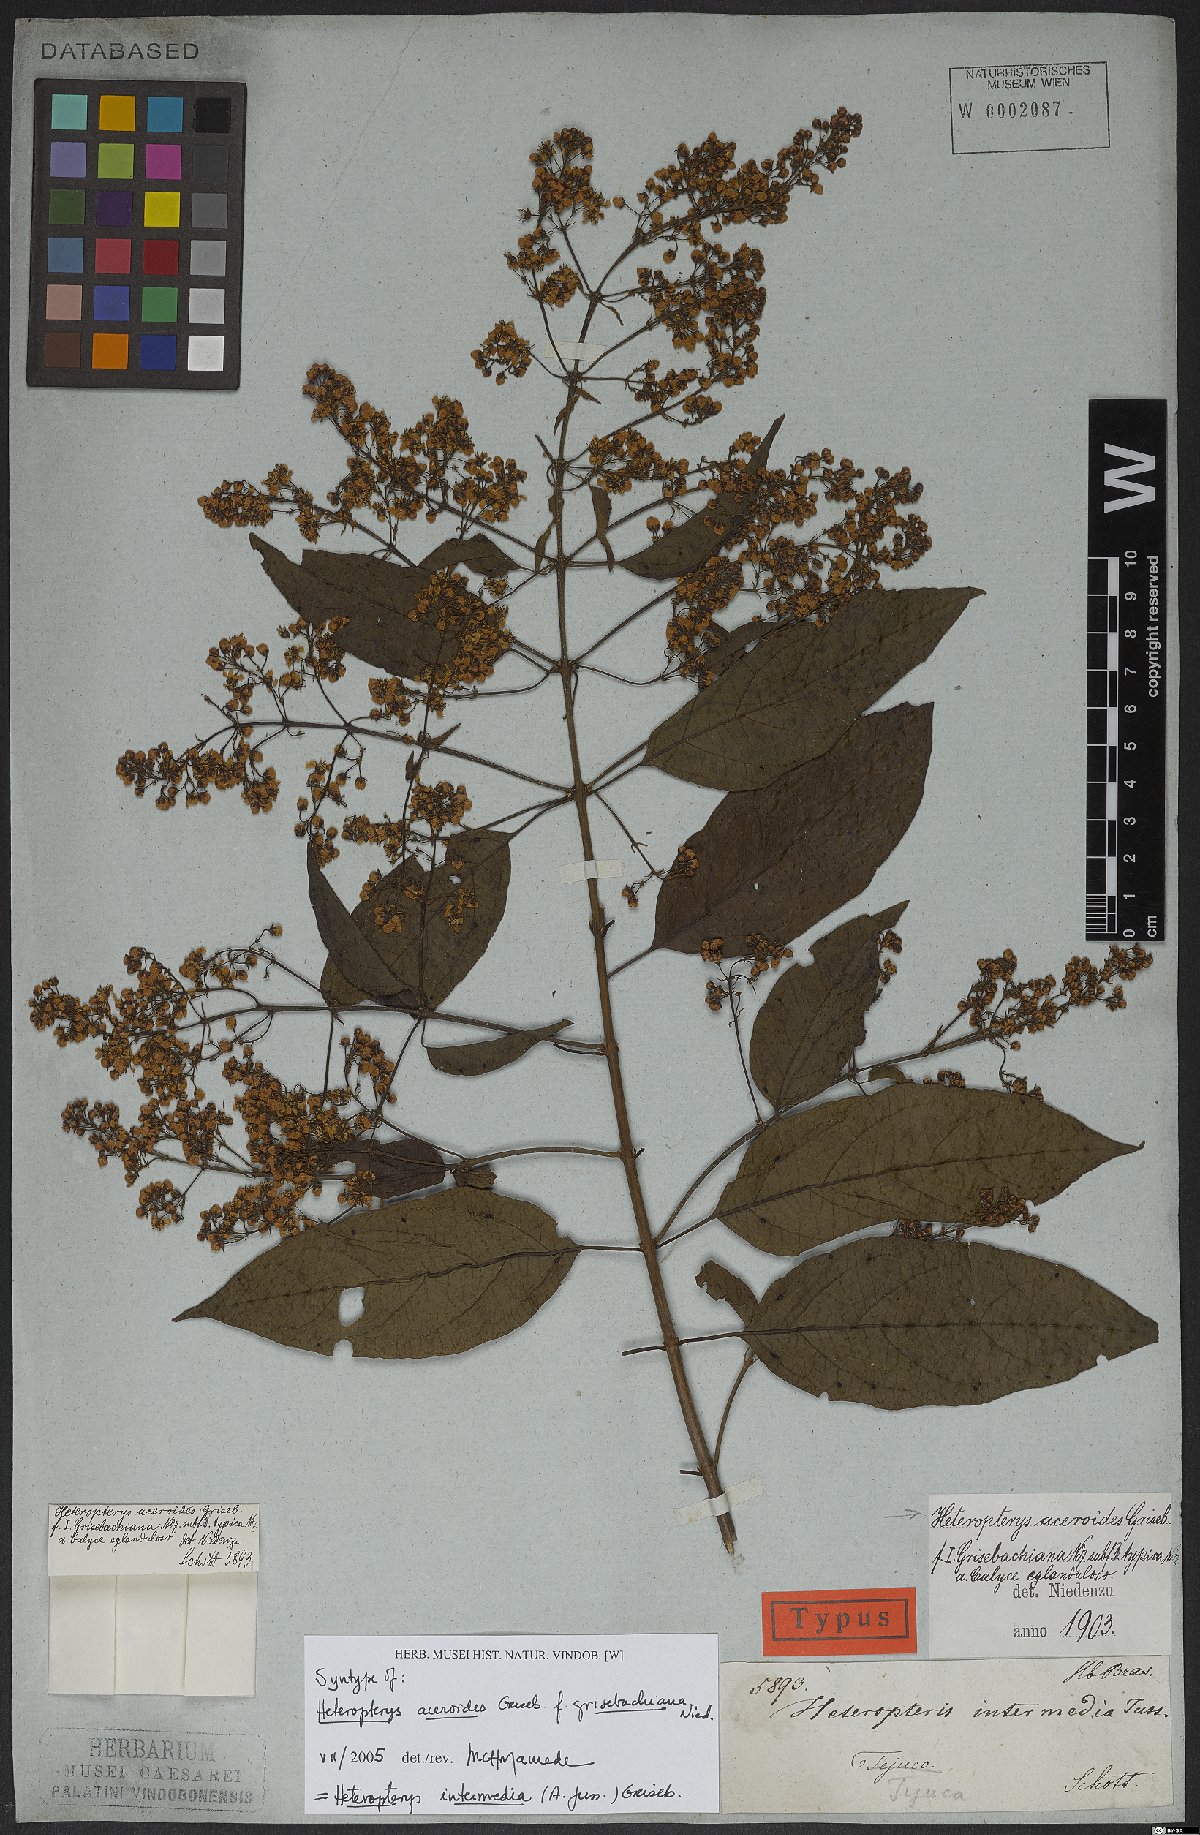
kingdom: Plantae
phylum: Tracheophyta
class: Magnoliopsida
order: Malpighiales
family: Malpighiaceae
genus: Heteropterys
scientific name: Heteropterys intermedia
